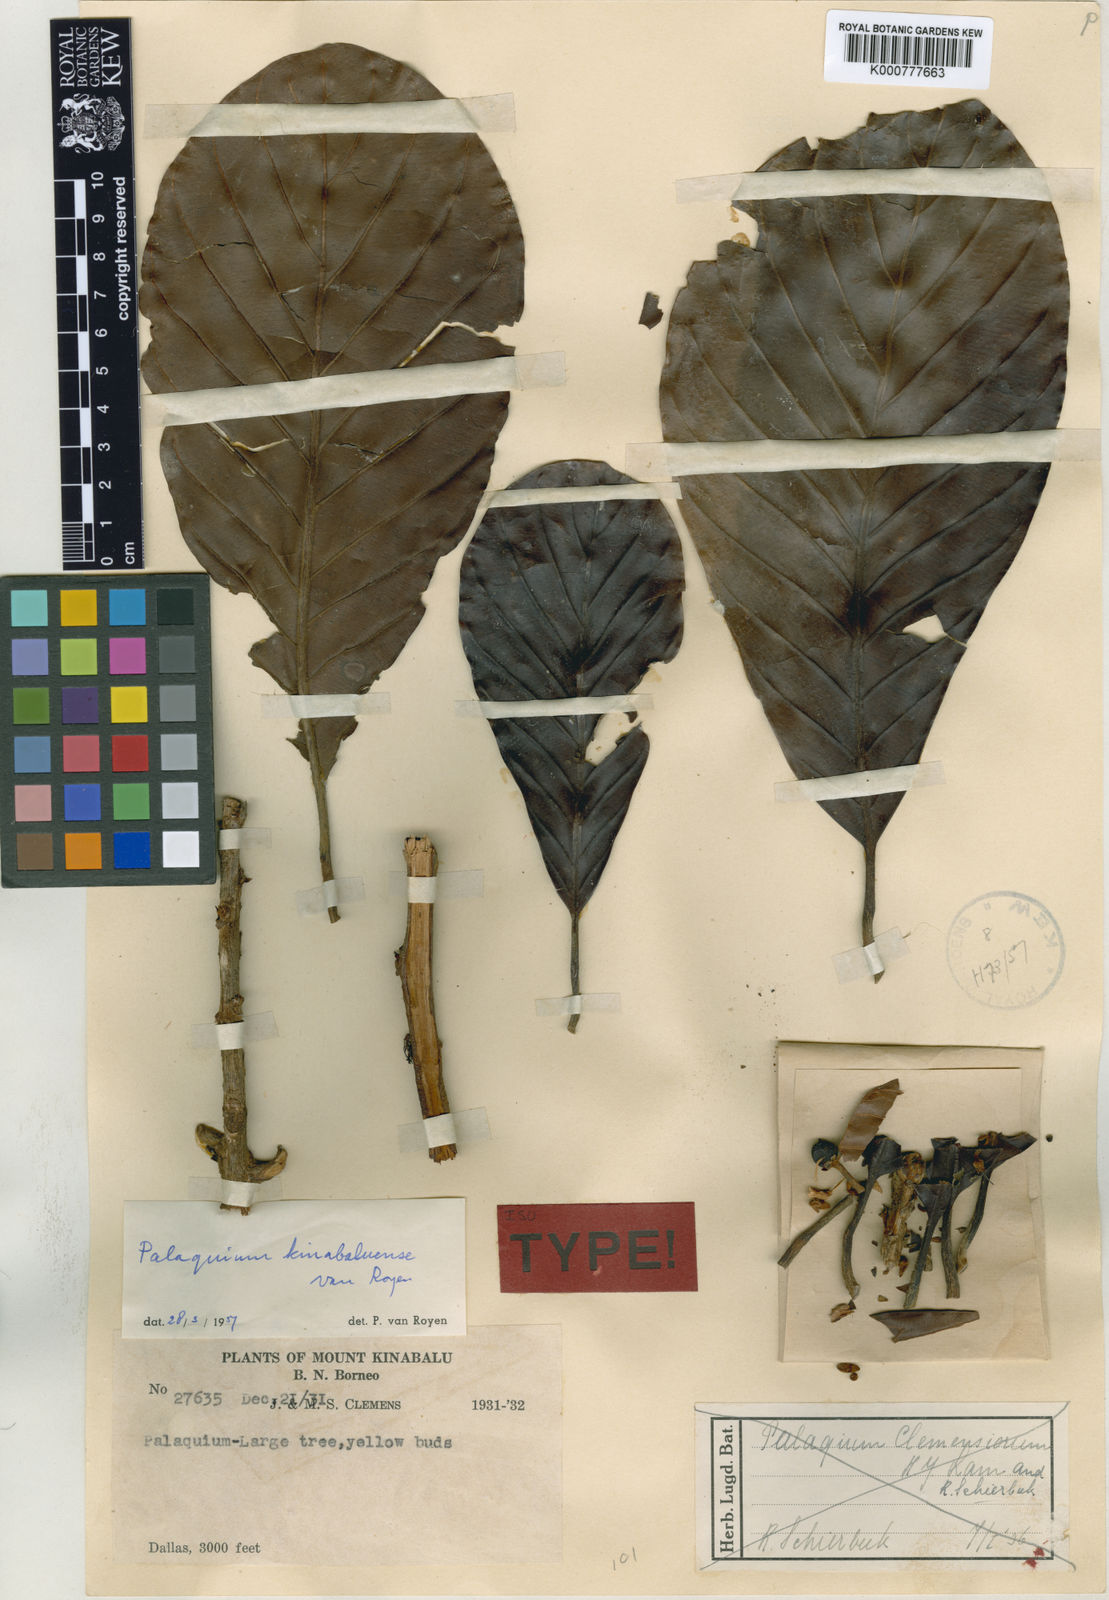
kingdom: Plantae
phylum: Tracheophyta
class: Magnoliopsida
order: Ericales
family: Sapotaceae
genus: Palaquium
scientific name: Palaquium kinabaluense
